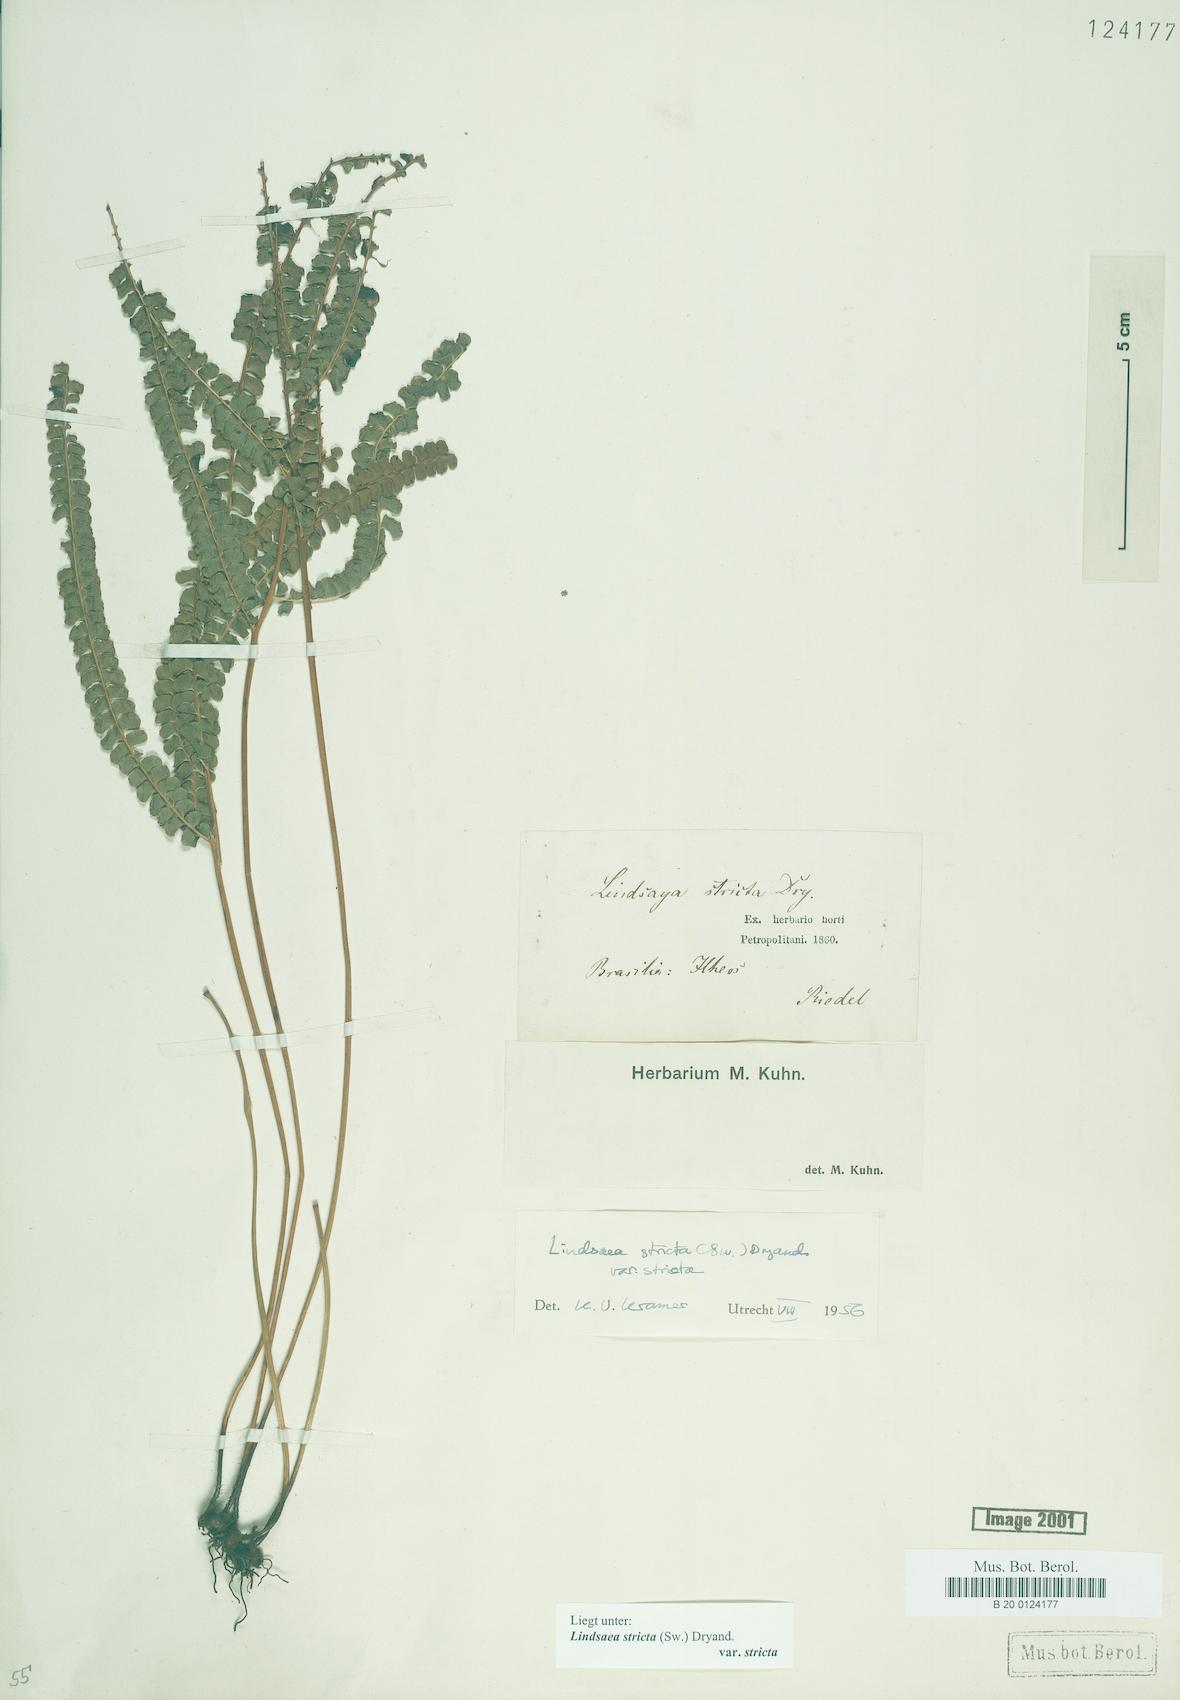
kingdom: Plantae
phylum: Tracheophyta
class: Polypodiopsida
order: Polypodiales
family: Lindsaeaceae
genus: Lindsaea
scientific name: Lindsaea stricta
